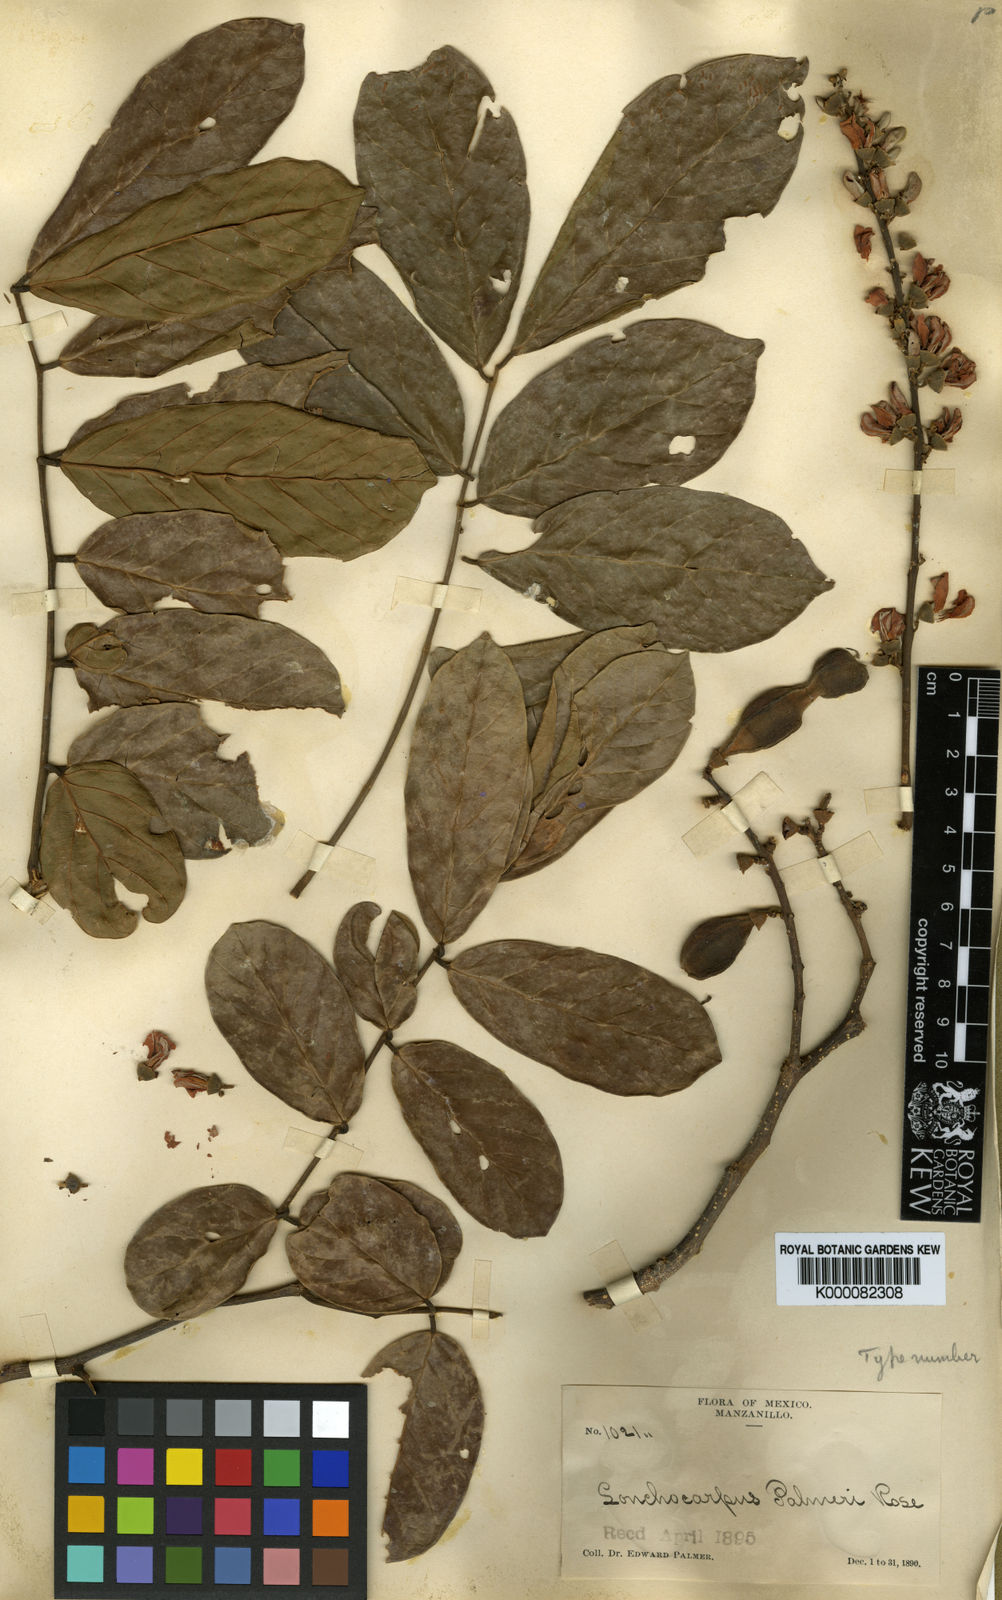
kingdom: Plantae
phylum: Tracheophyta
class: Magnoliopsida
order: Fabales
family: Fabaceae
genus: Lonchocarpus
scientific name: Lonchocarpus palmeri
